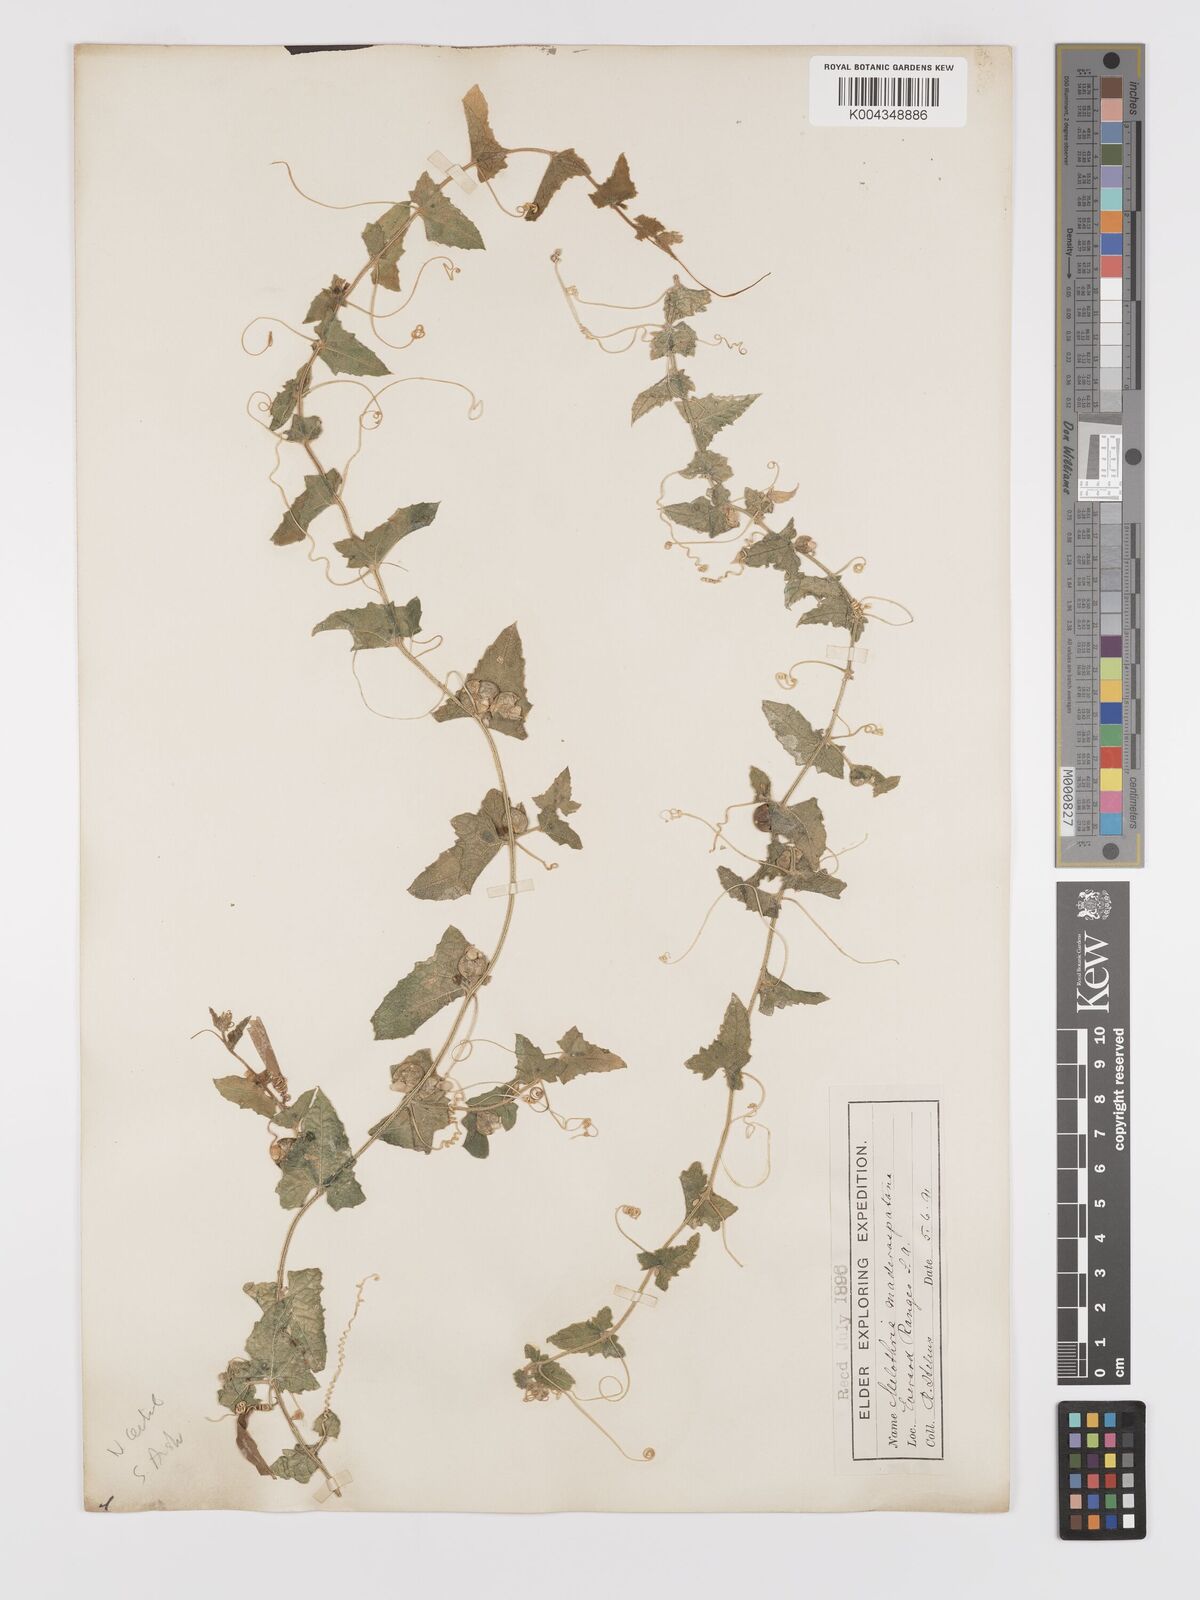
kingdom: Animalia
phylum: Arthropoda
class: Insecta
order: Lepidoptera
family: Crambidae
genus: Mukia
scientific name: Mukia
